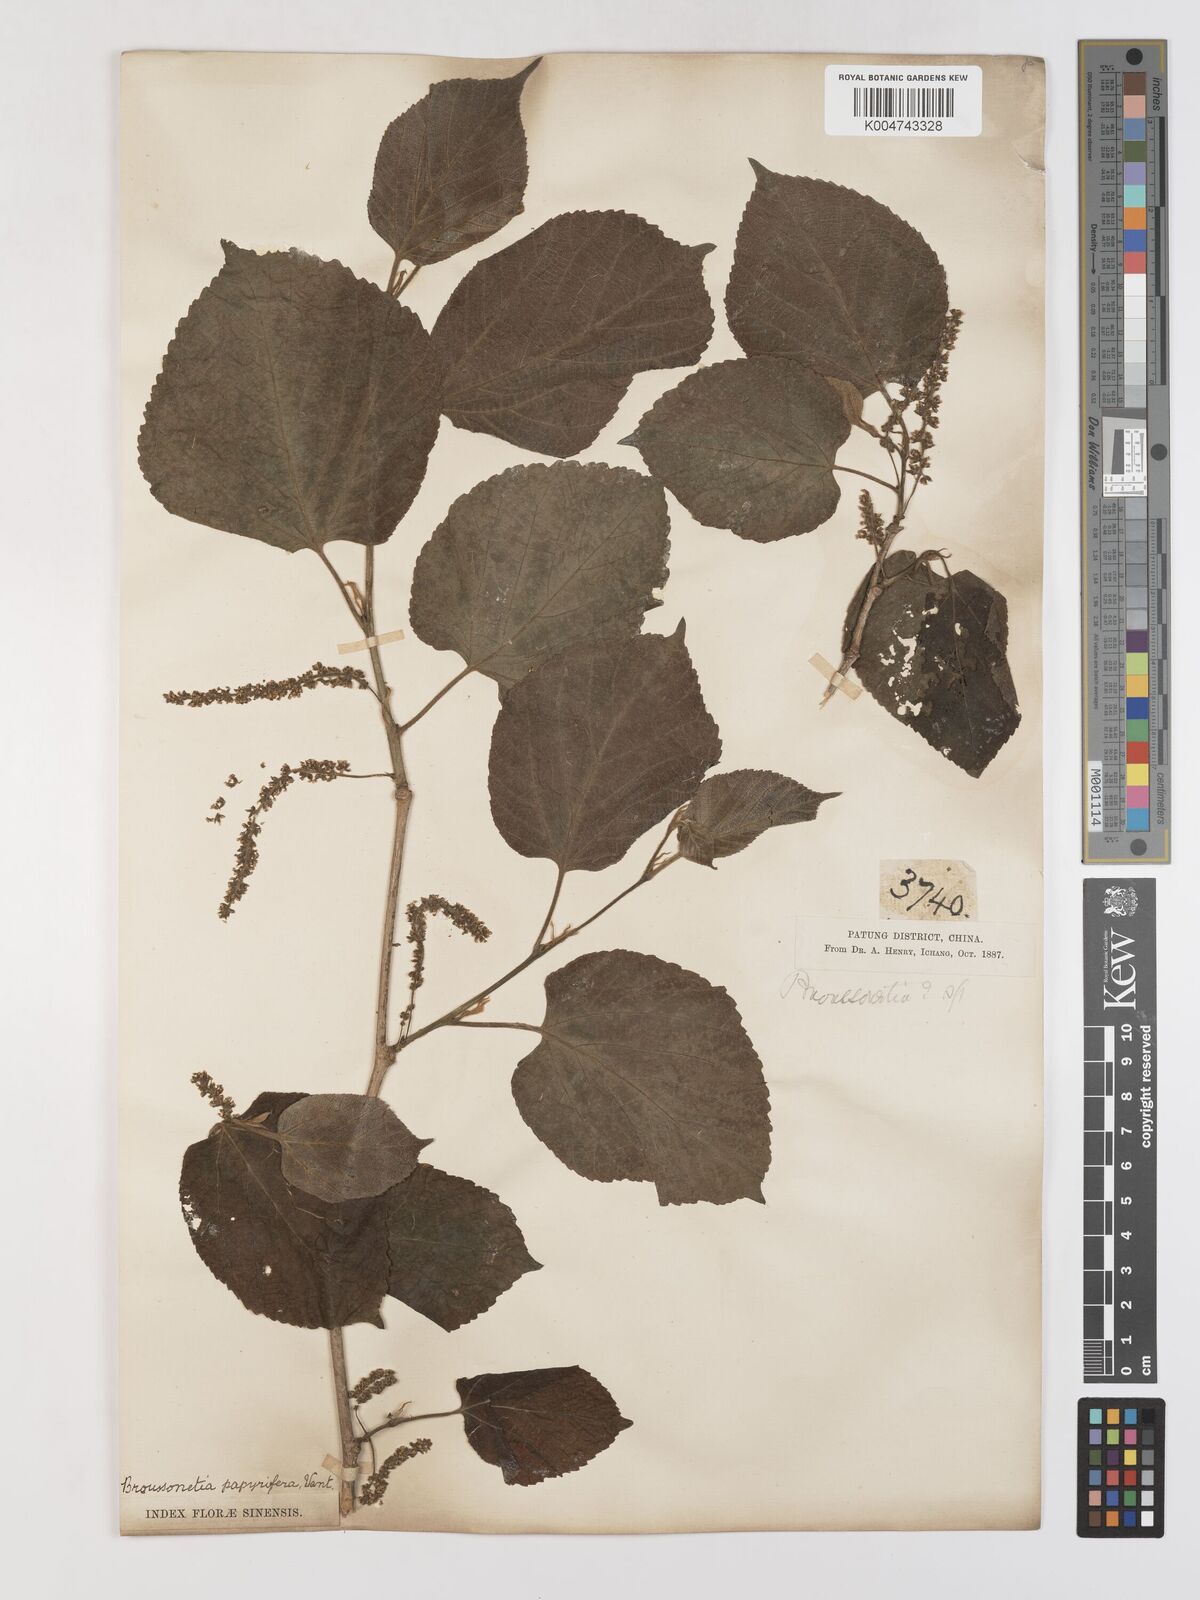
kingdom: Plantae
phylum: Tracheophyta
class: Magnoliopsida
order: Rosales
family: Moraceae
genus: Morus
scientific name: Morus cathayana
